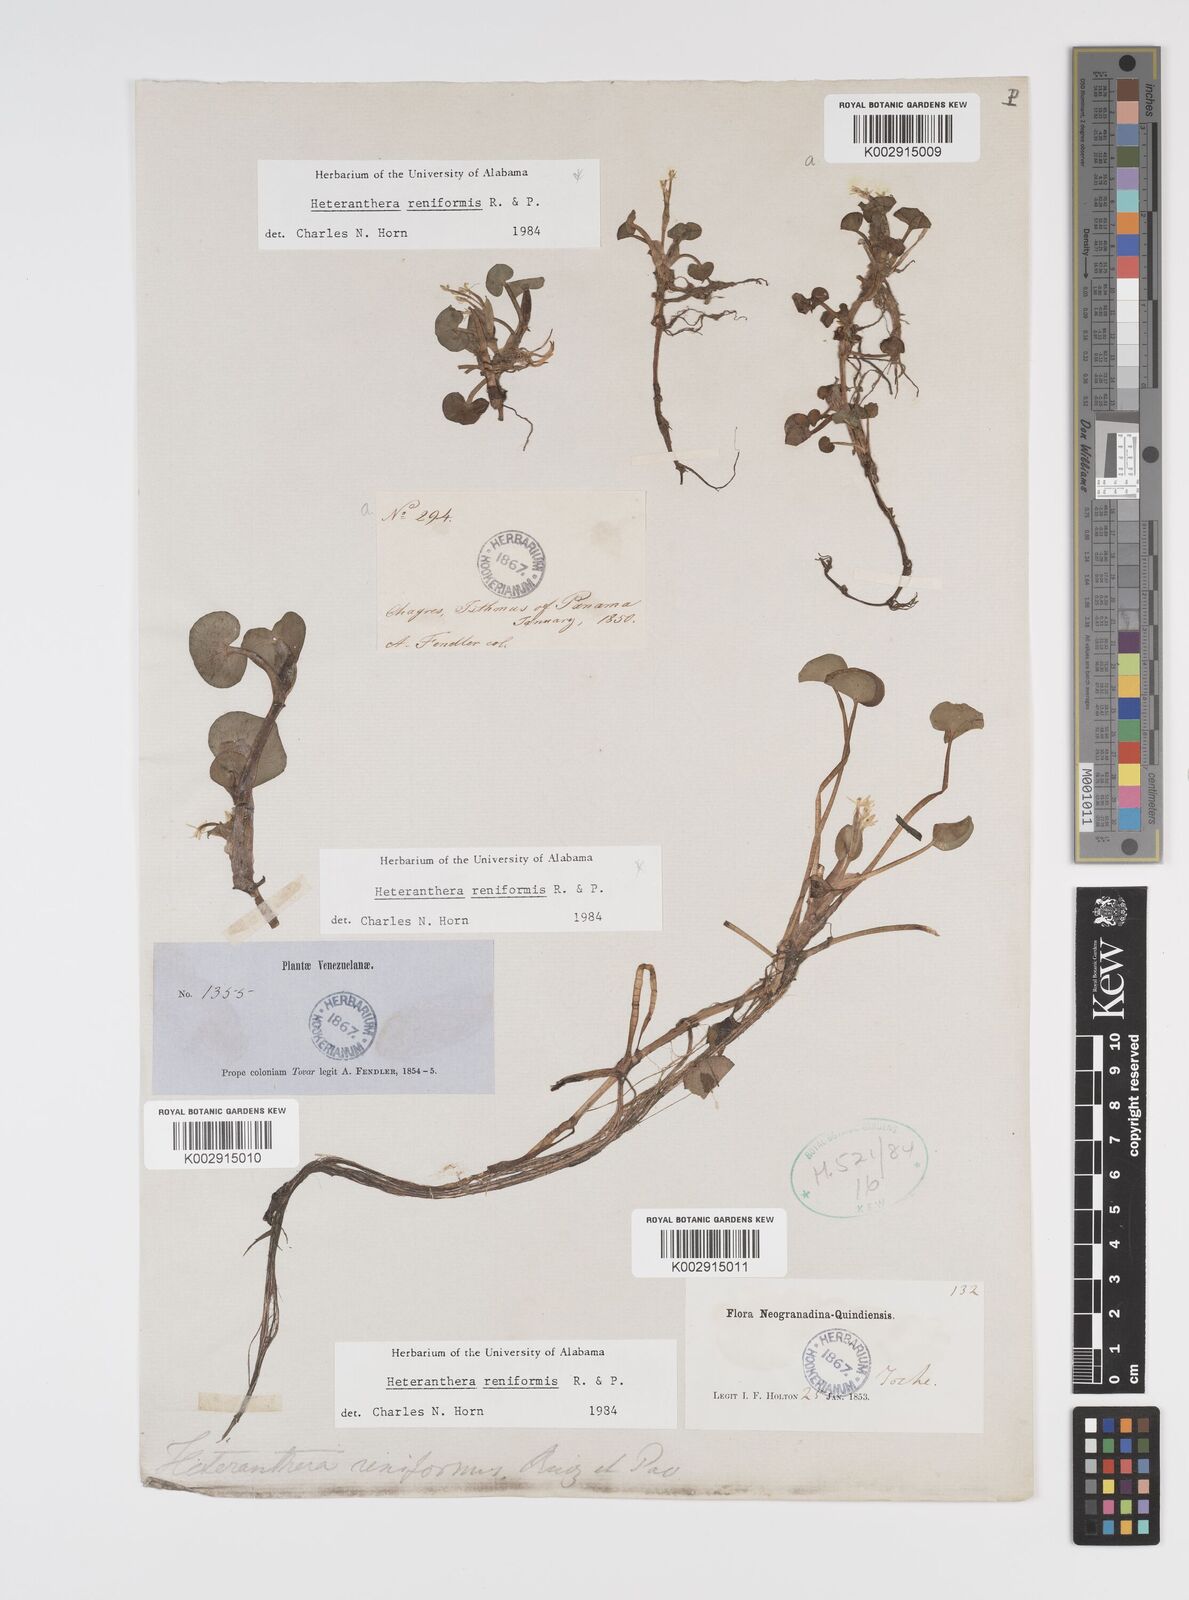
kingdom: Plantae
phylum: Tracheophyta
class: Liliopsida
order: Commelinales
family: Pontederiaceae
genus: Heteranthera
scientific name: Heteranthera reniformis
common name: Kidneyleaf mudplantain
